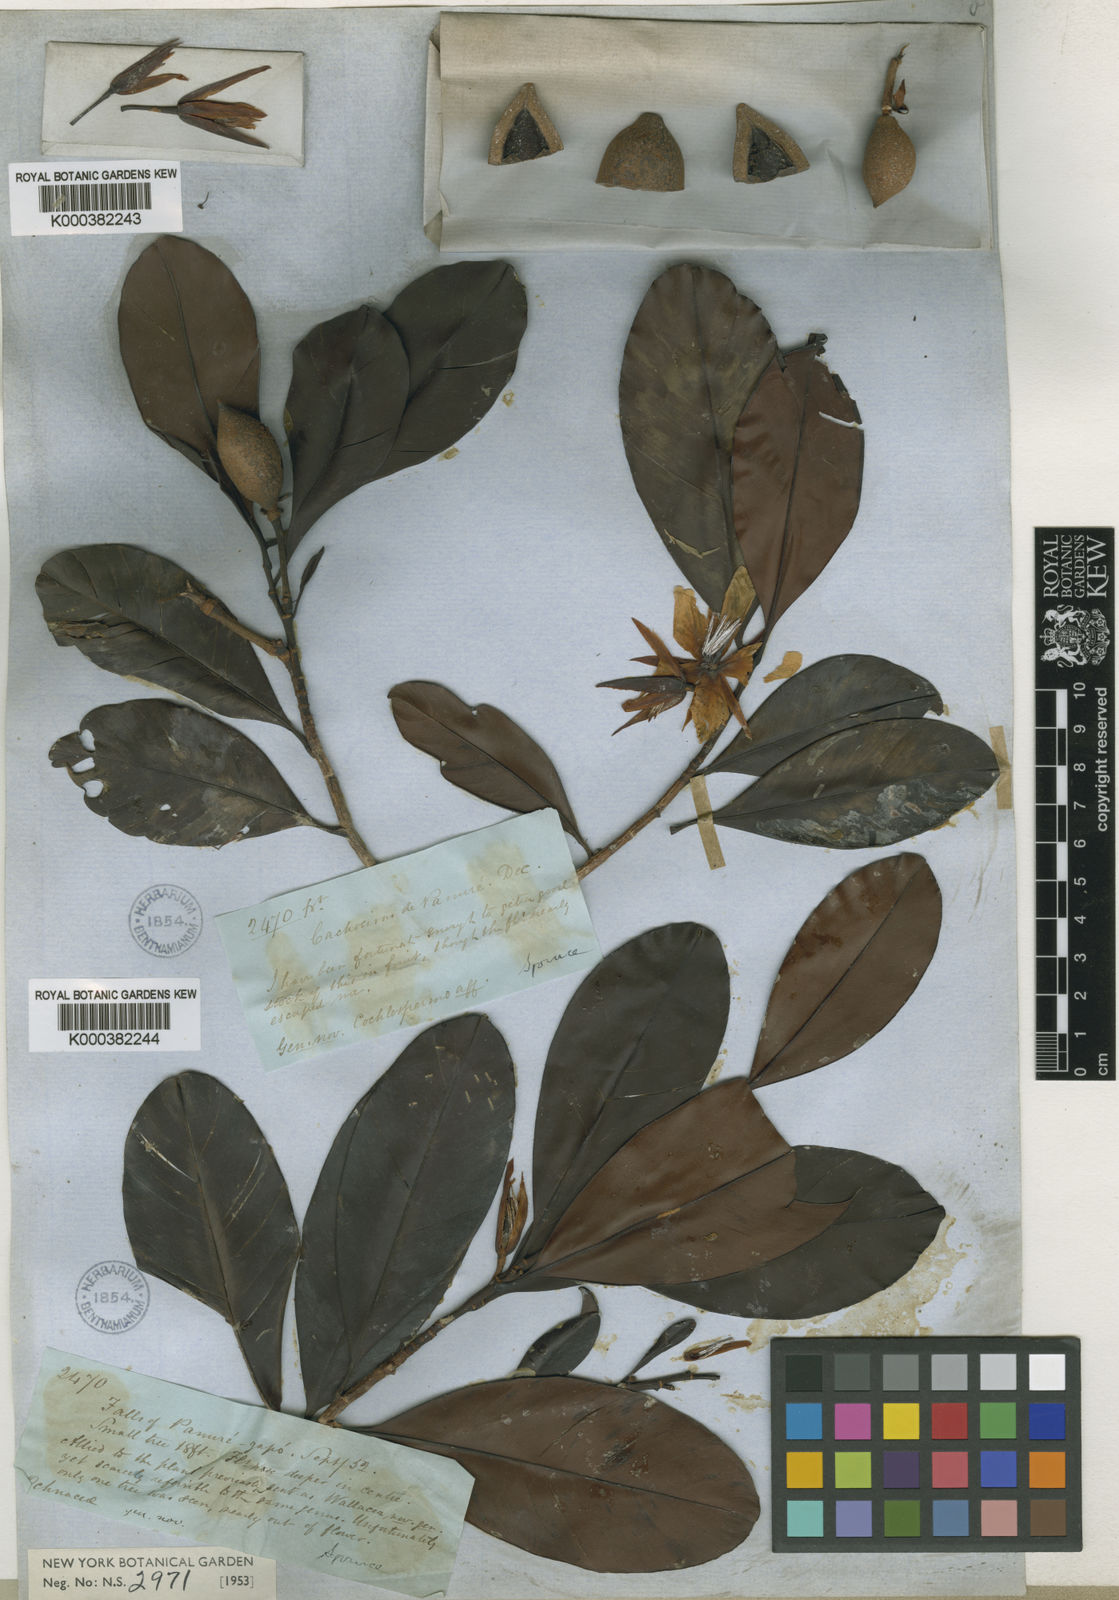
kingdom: Plantae
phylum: Tracheophyta
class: Magnoliopsida
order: Malpighiales
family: Ochnaceae
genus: Wallacea
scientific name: Wallacea insignis
